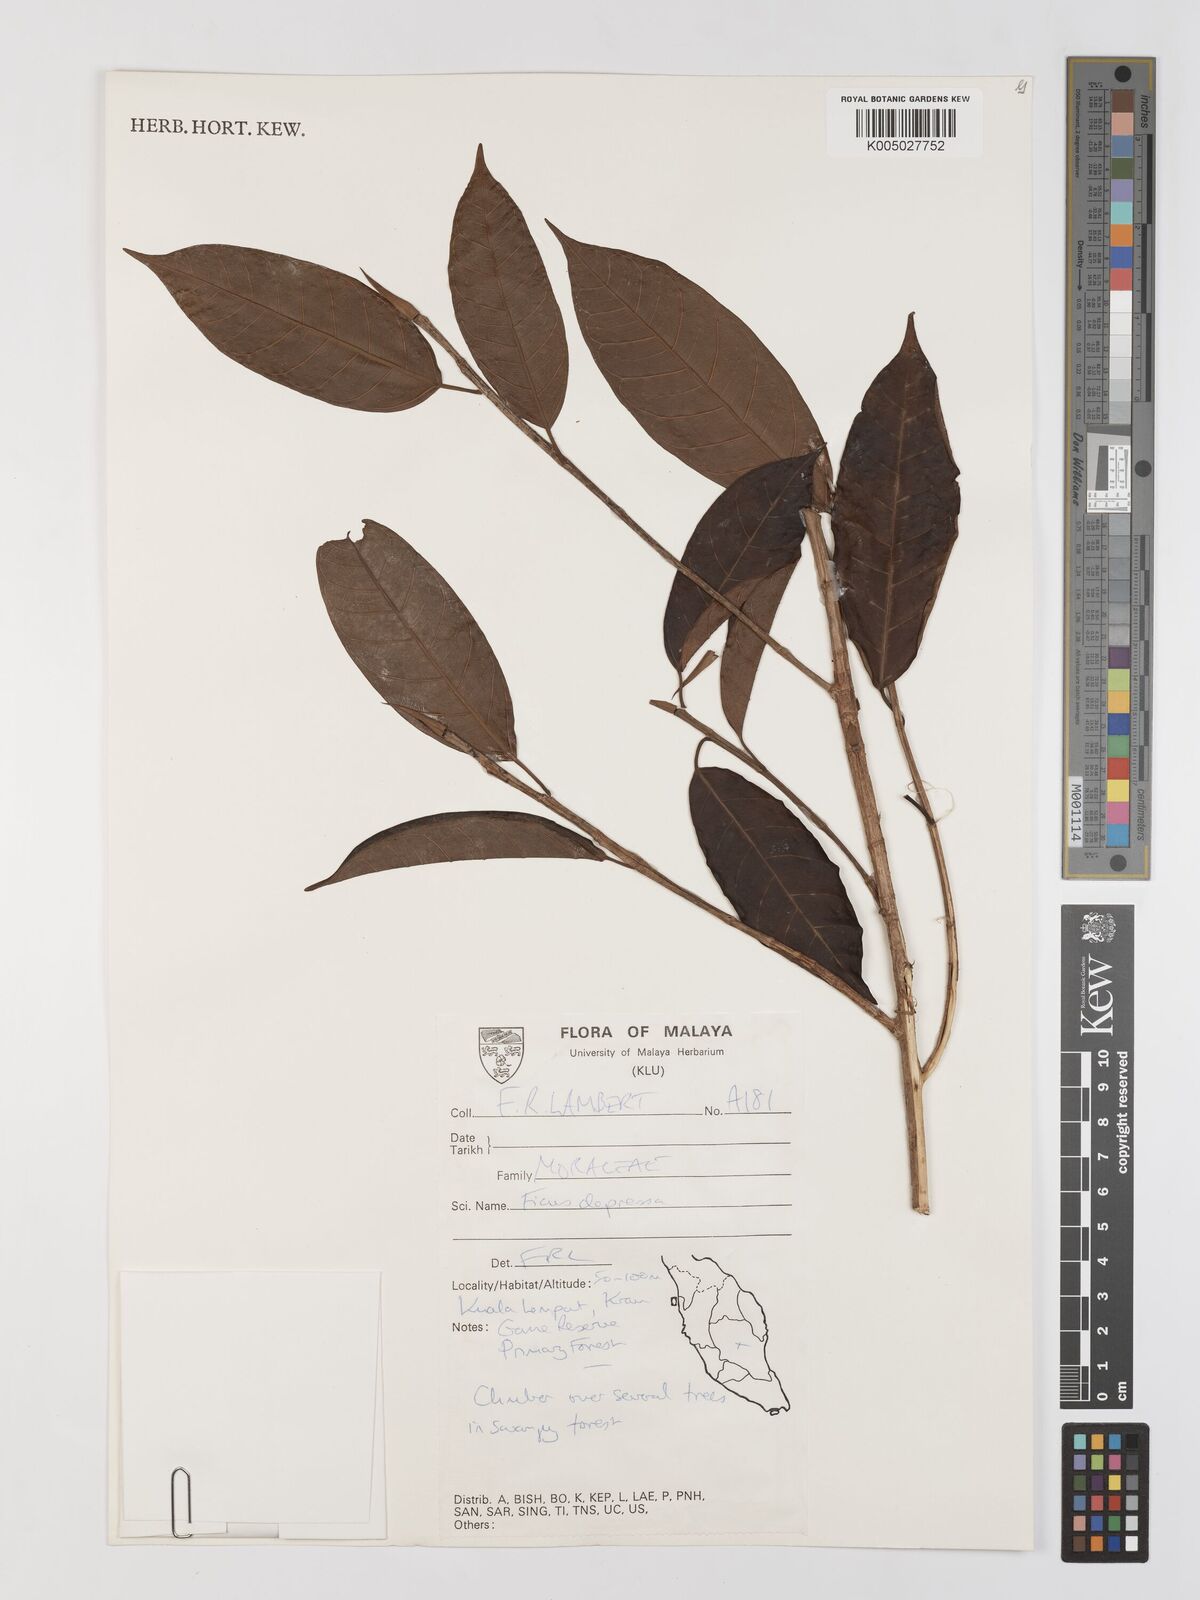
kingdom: Plantae
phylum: Tracheophyta
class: Magnoliopsida
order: Rosales
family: Moraceae
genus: Ficus
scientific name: Ficus
